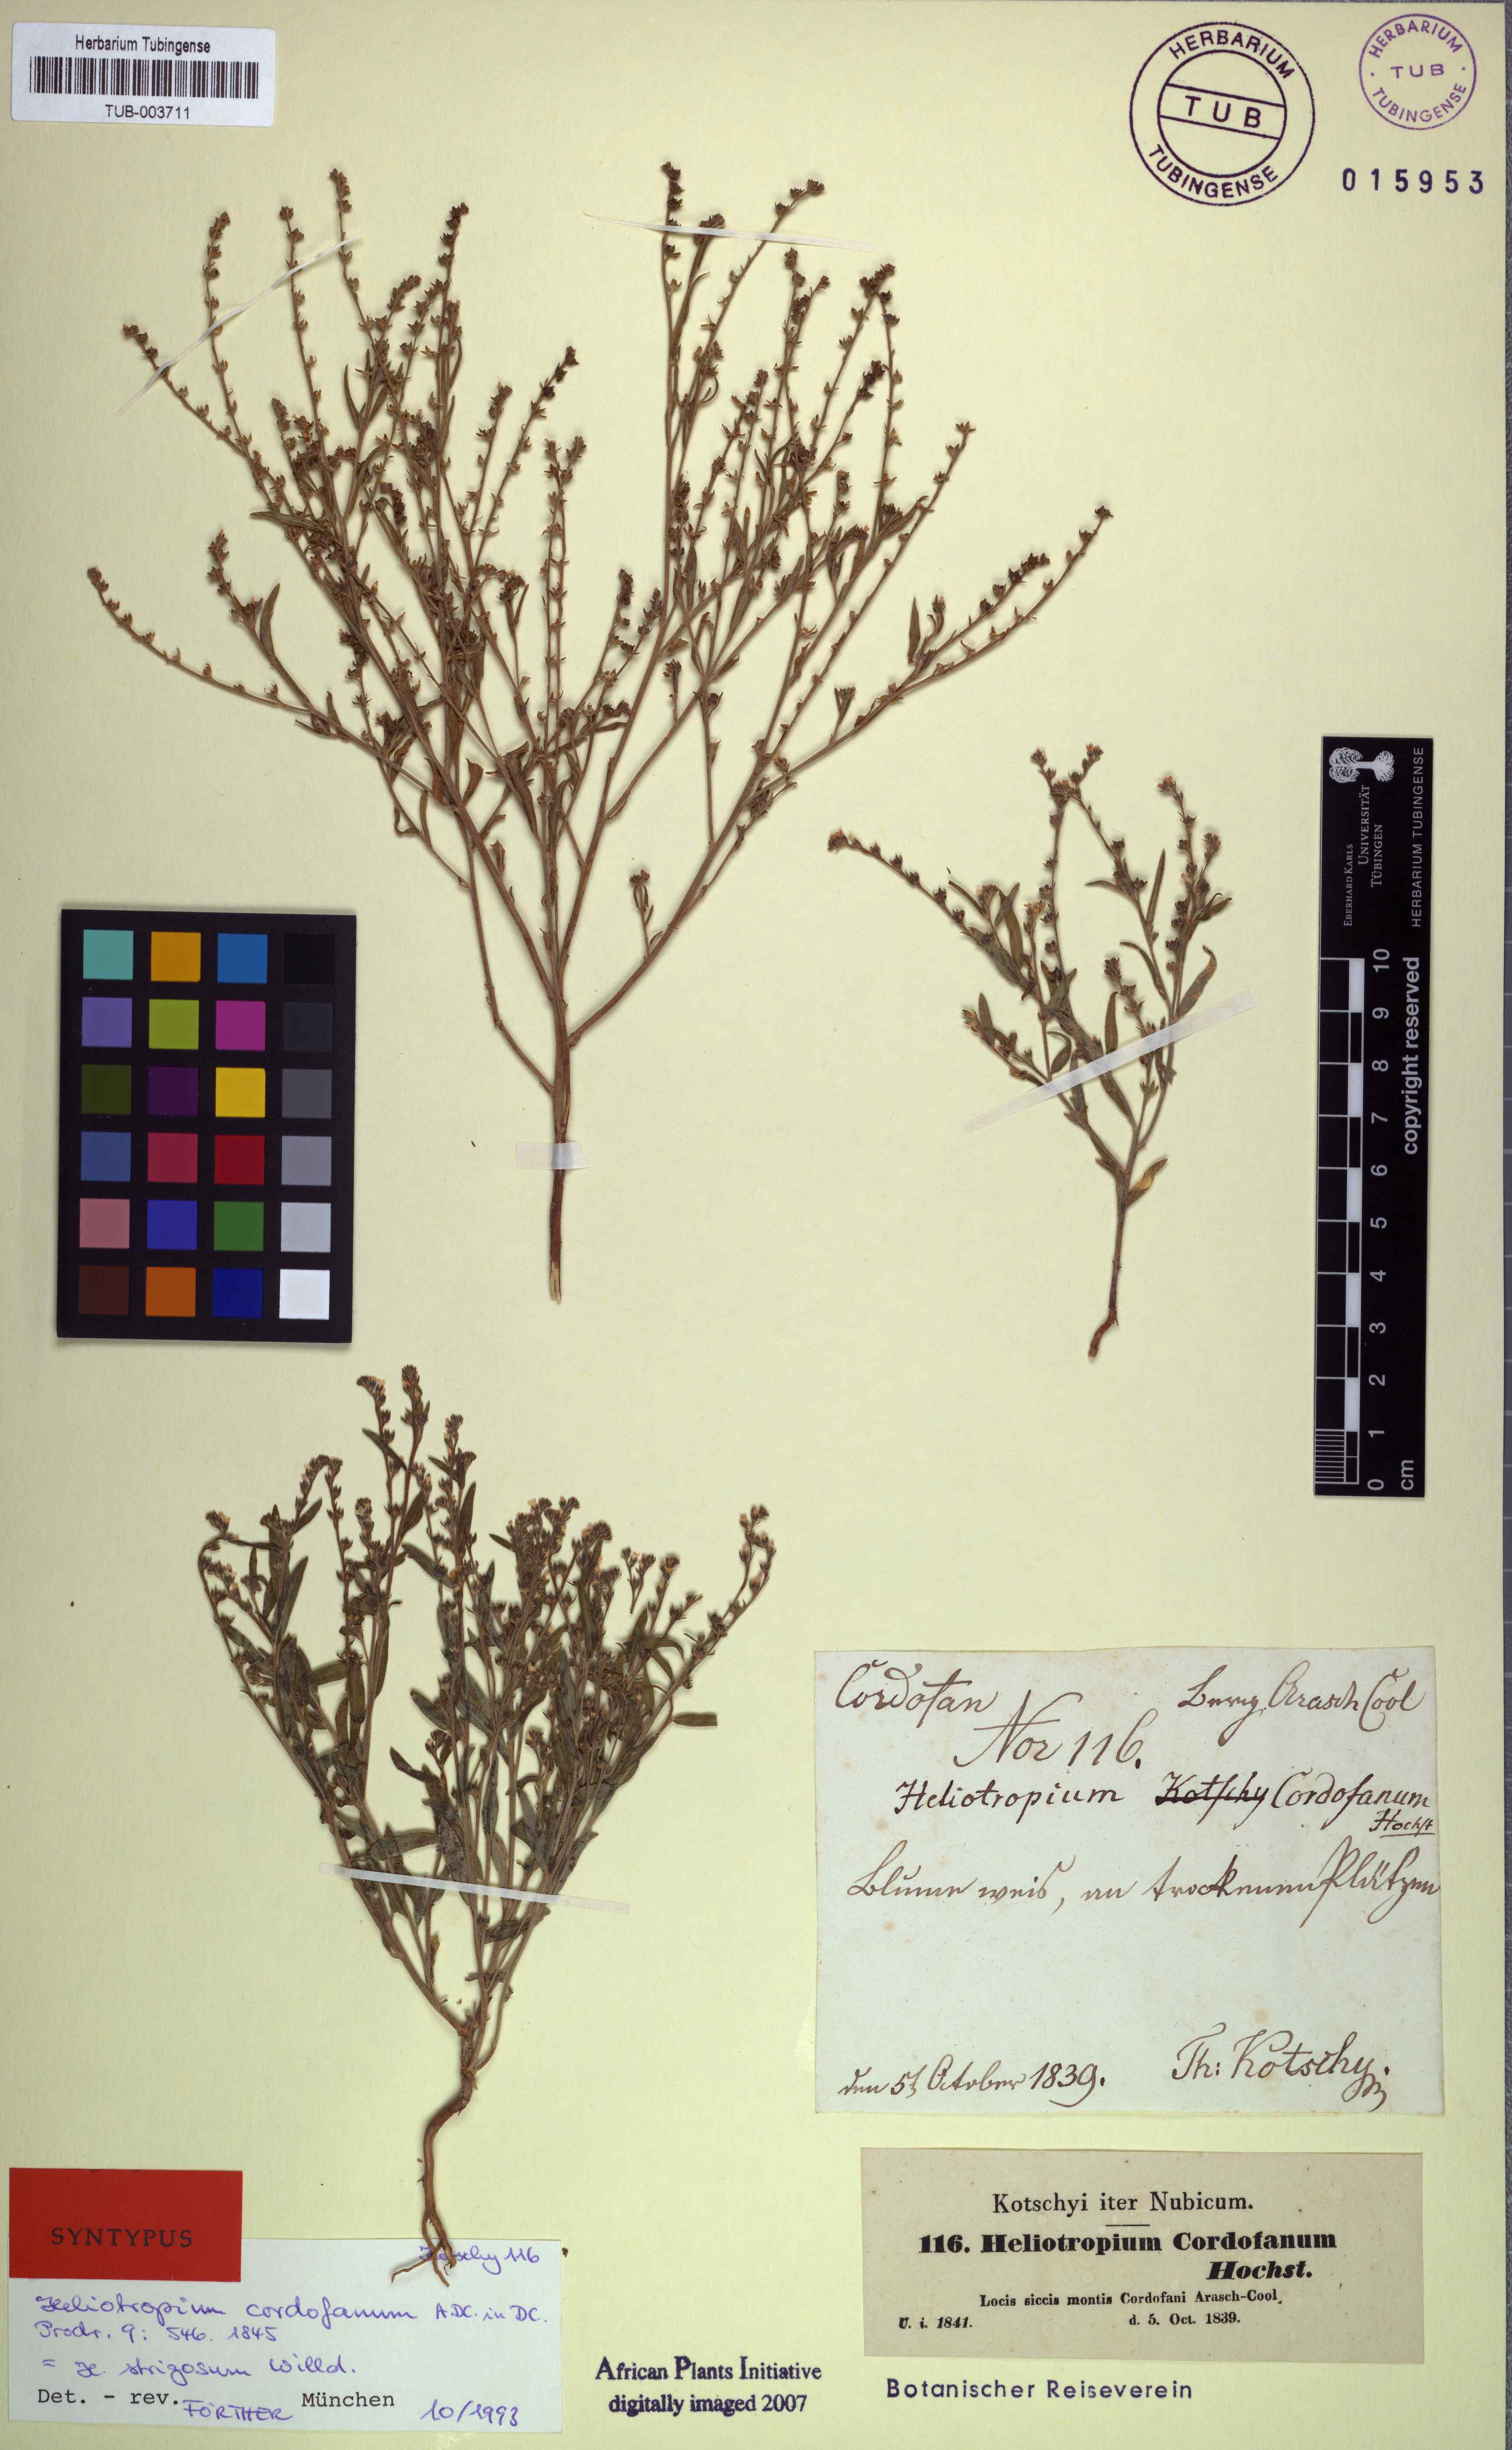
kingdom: Plantae
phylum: Tracheophyta
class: Magnoliopsida
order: Boraginales
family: Heliotropiaceae
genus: Euploca
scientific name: Euploca strigosa
